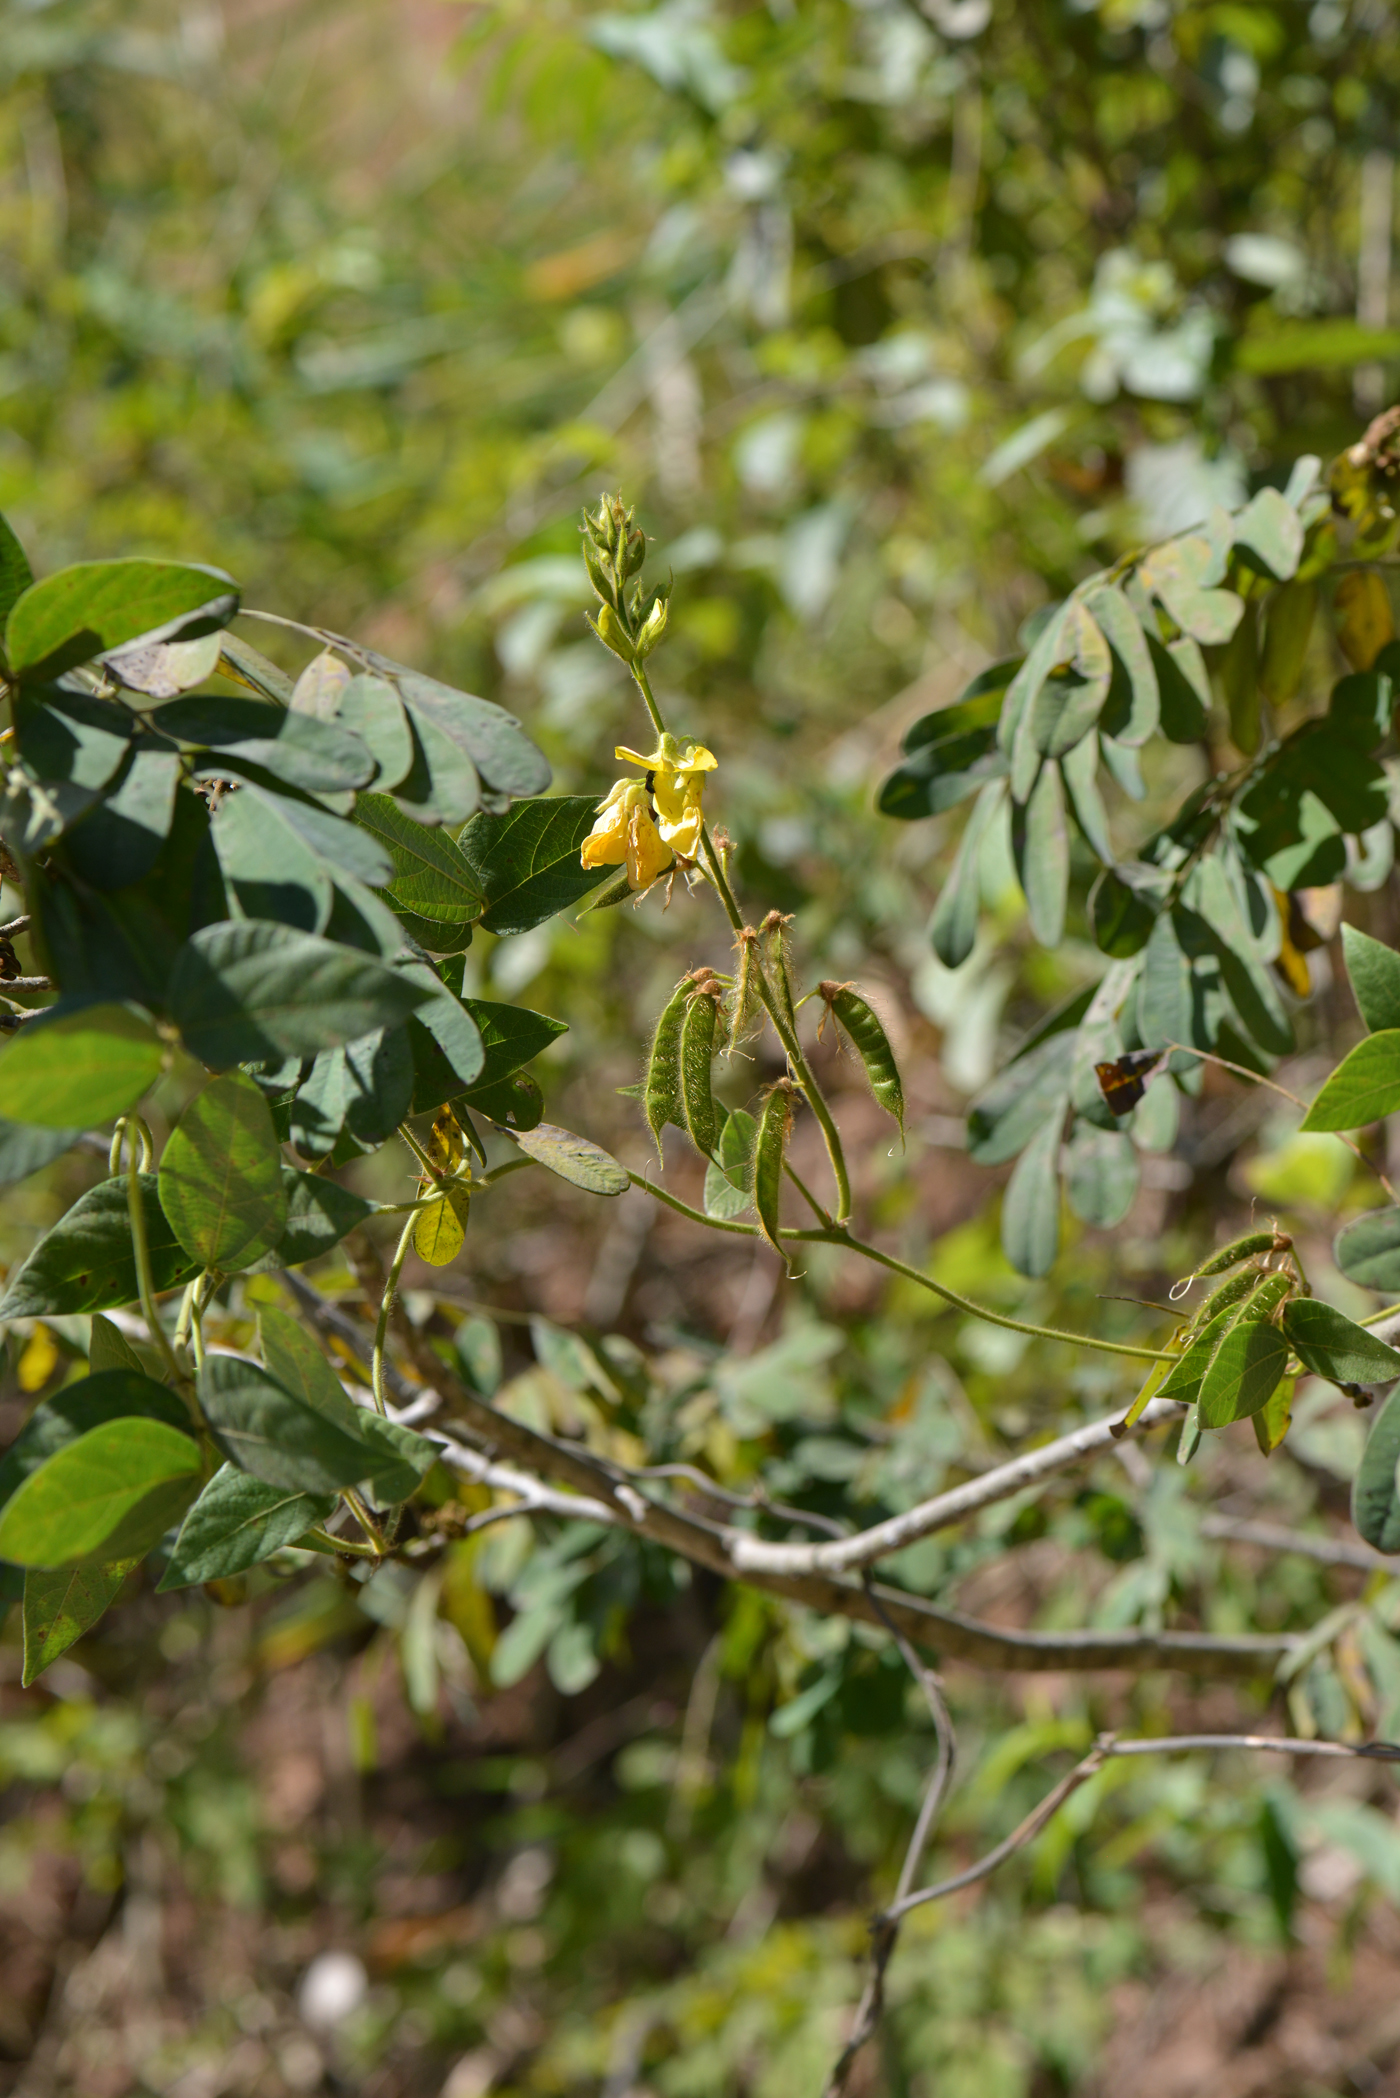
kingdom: Plantae
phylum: Tracheophyta
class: Magnoliopsida
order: Fabales
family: Fabaceae
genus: Dunbaria
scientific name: Dunbaria
